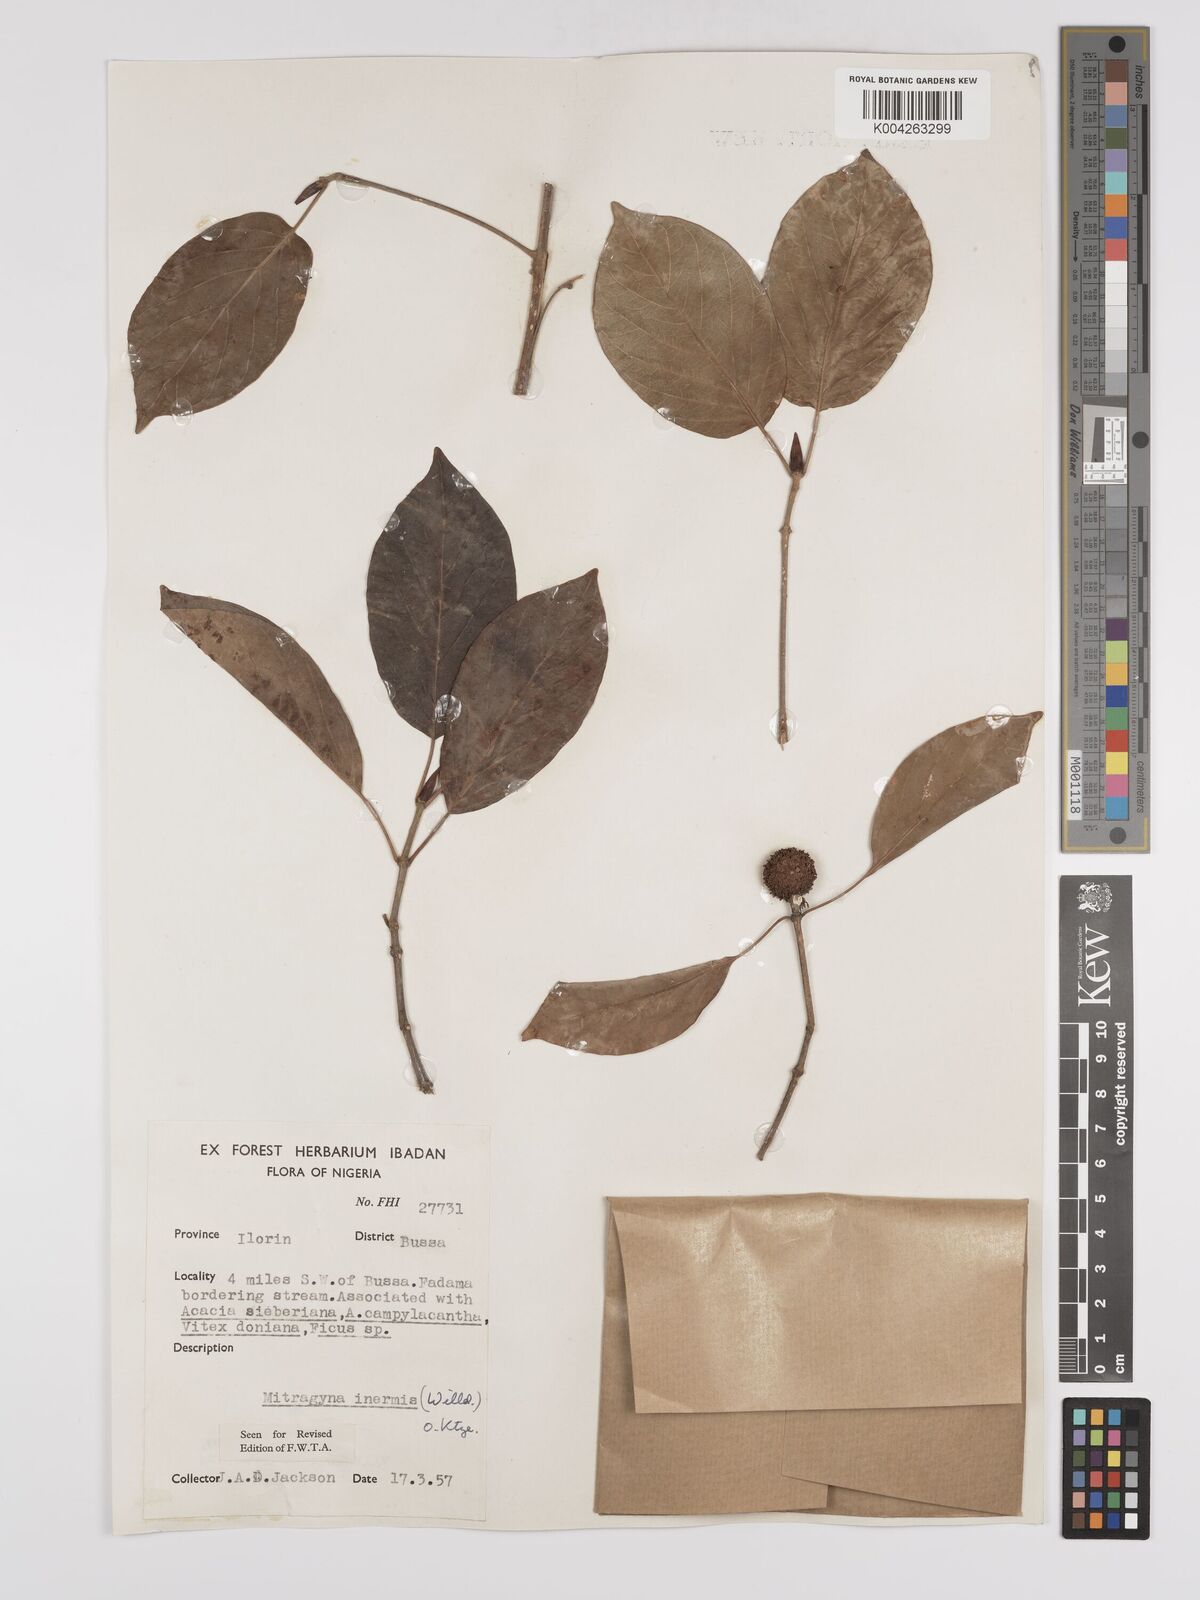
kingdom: Plantae
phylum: Tracheophyta
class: Magnoliopsida
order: Gentianales
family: Rubiaceae
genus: Mitragyna
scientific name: Mitragyna inermis
